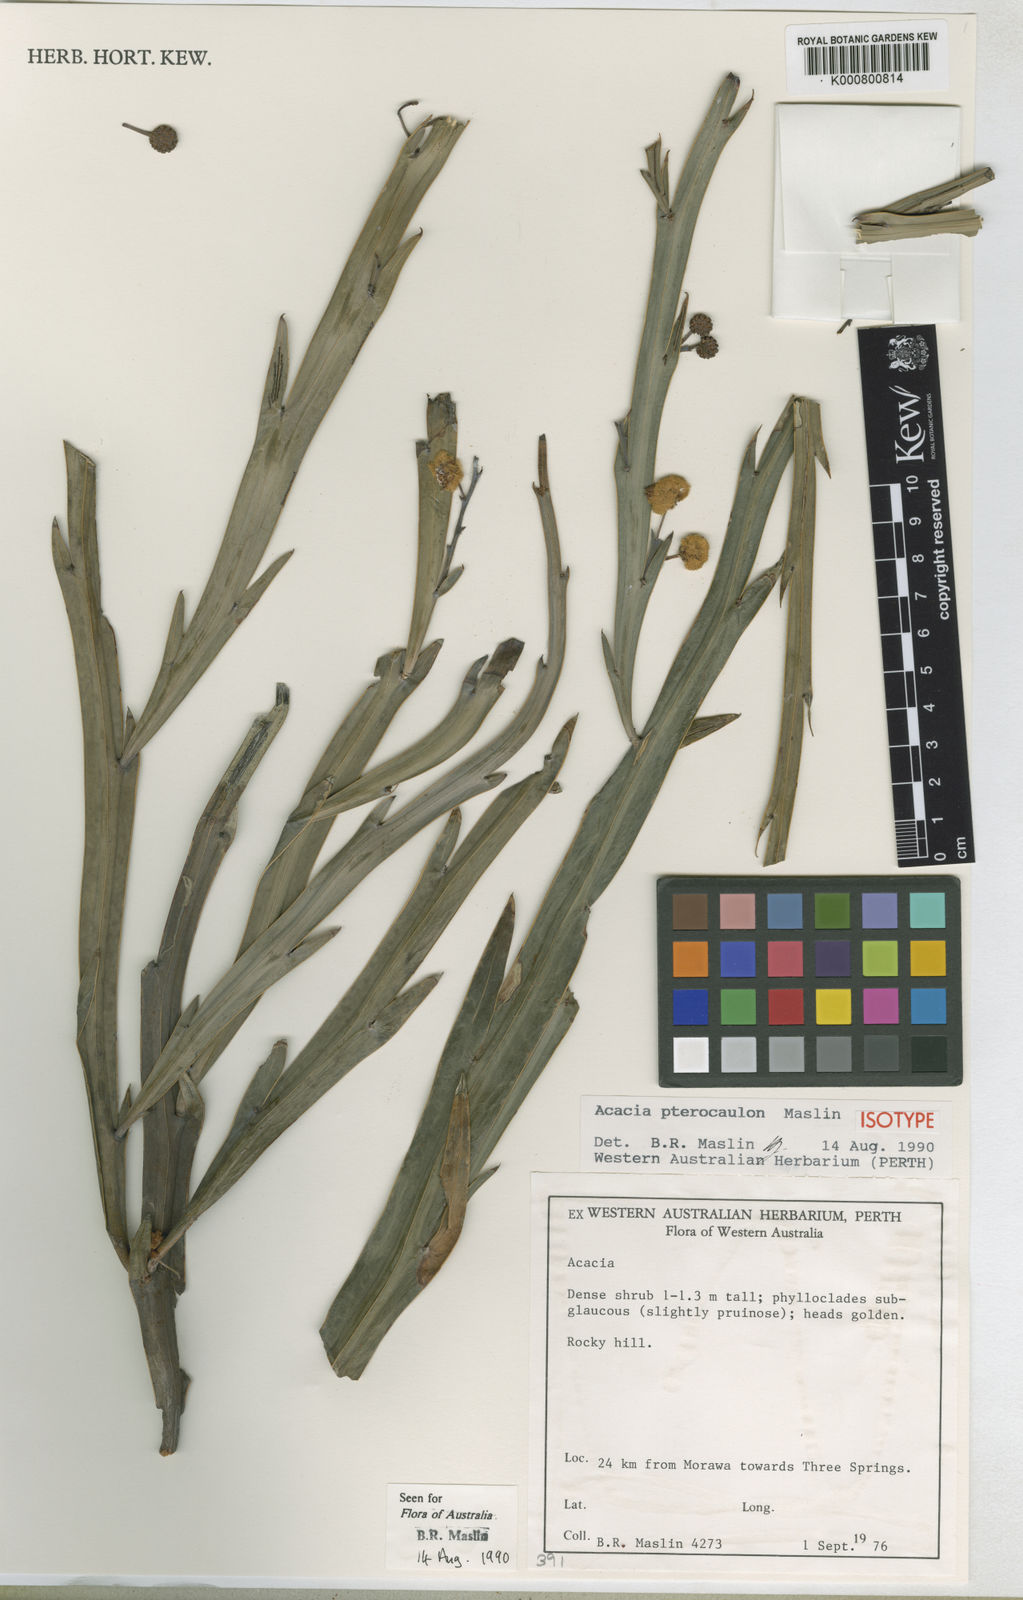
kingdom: Plantae
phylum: Tracheophyta
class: Magnoliopsida
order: Fabales
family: Fabaceae
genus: Acacia
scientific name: Acacia pterocaulon
